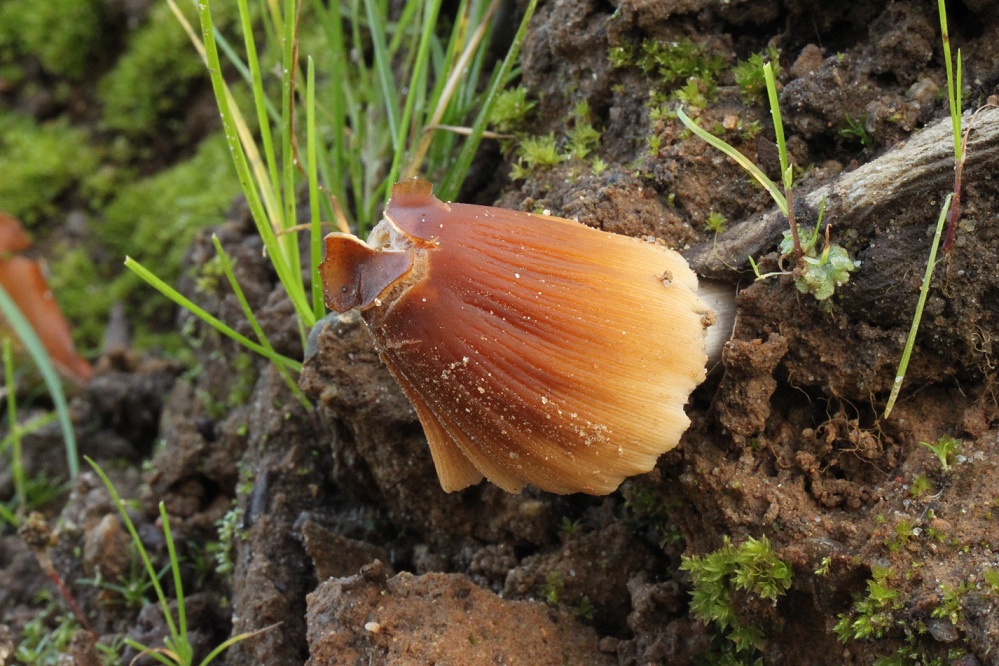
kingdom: Fungi
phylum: Basidiomycota
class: Agaricomycetes
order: Agaricales
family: Psathyrellaceae
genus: Coprinellus
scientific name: Coprinellus micaceus
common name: glimmer-blækhat
